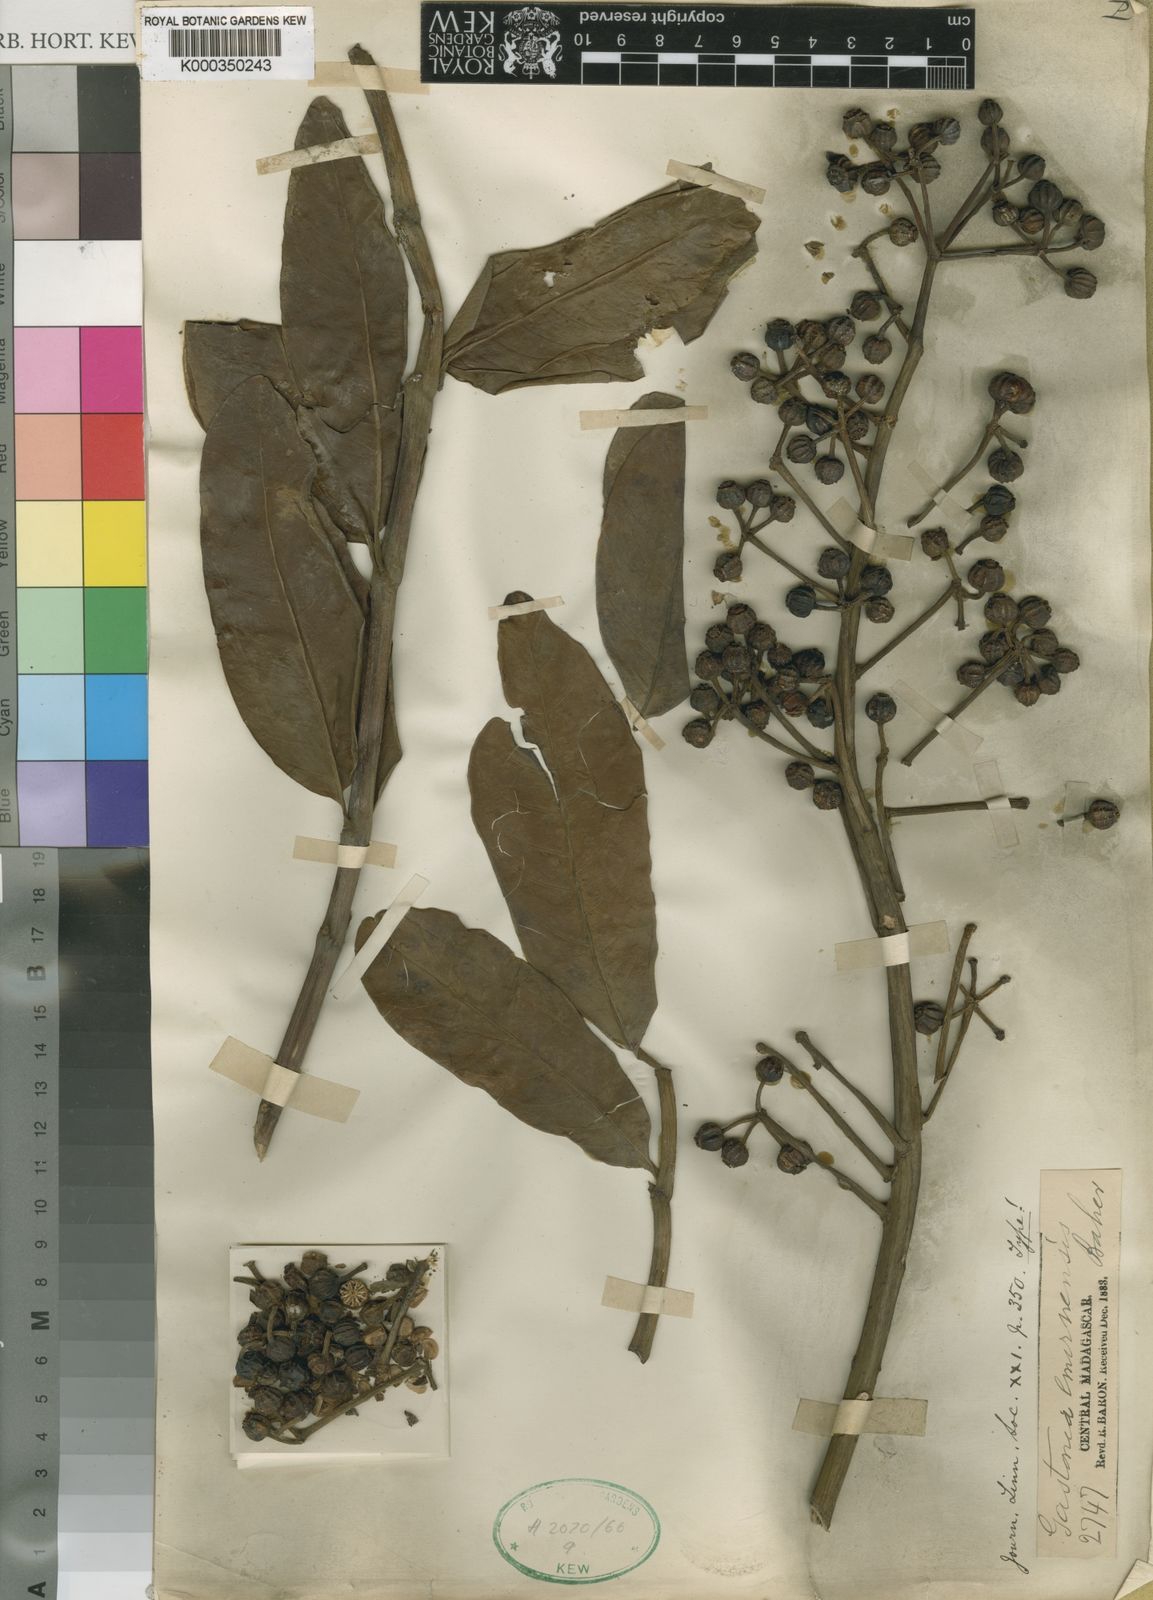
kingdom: Plantae
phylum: Tracheophyta
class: Magnoliopsida
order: Apiales
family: Araliaceae
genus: Polyscias
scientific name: Polyscias duplicata
